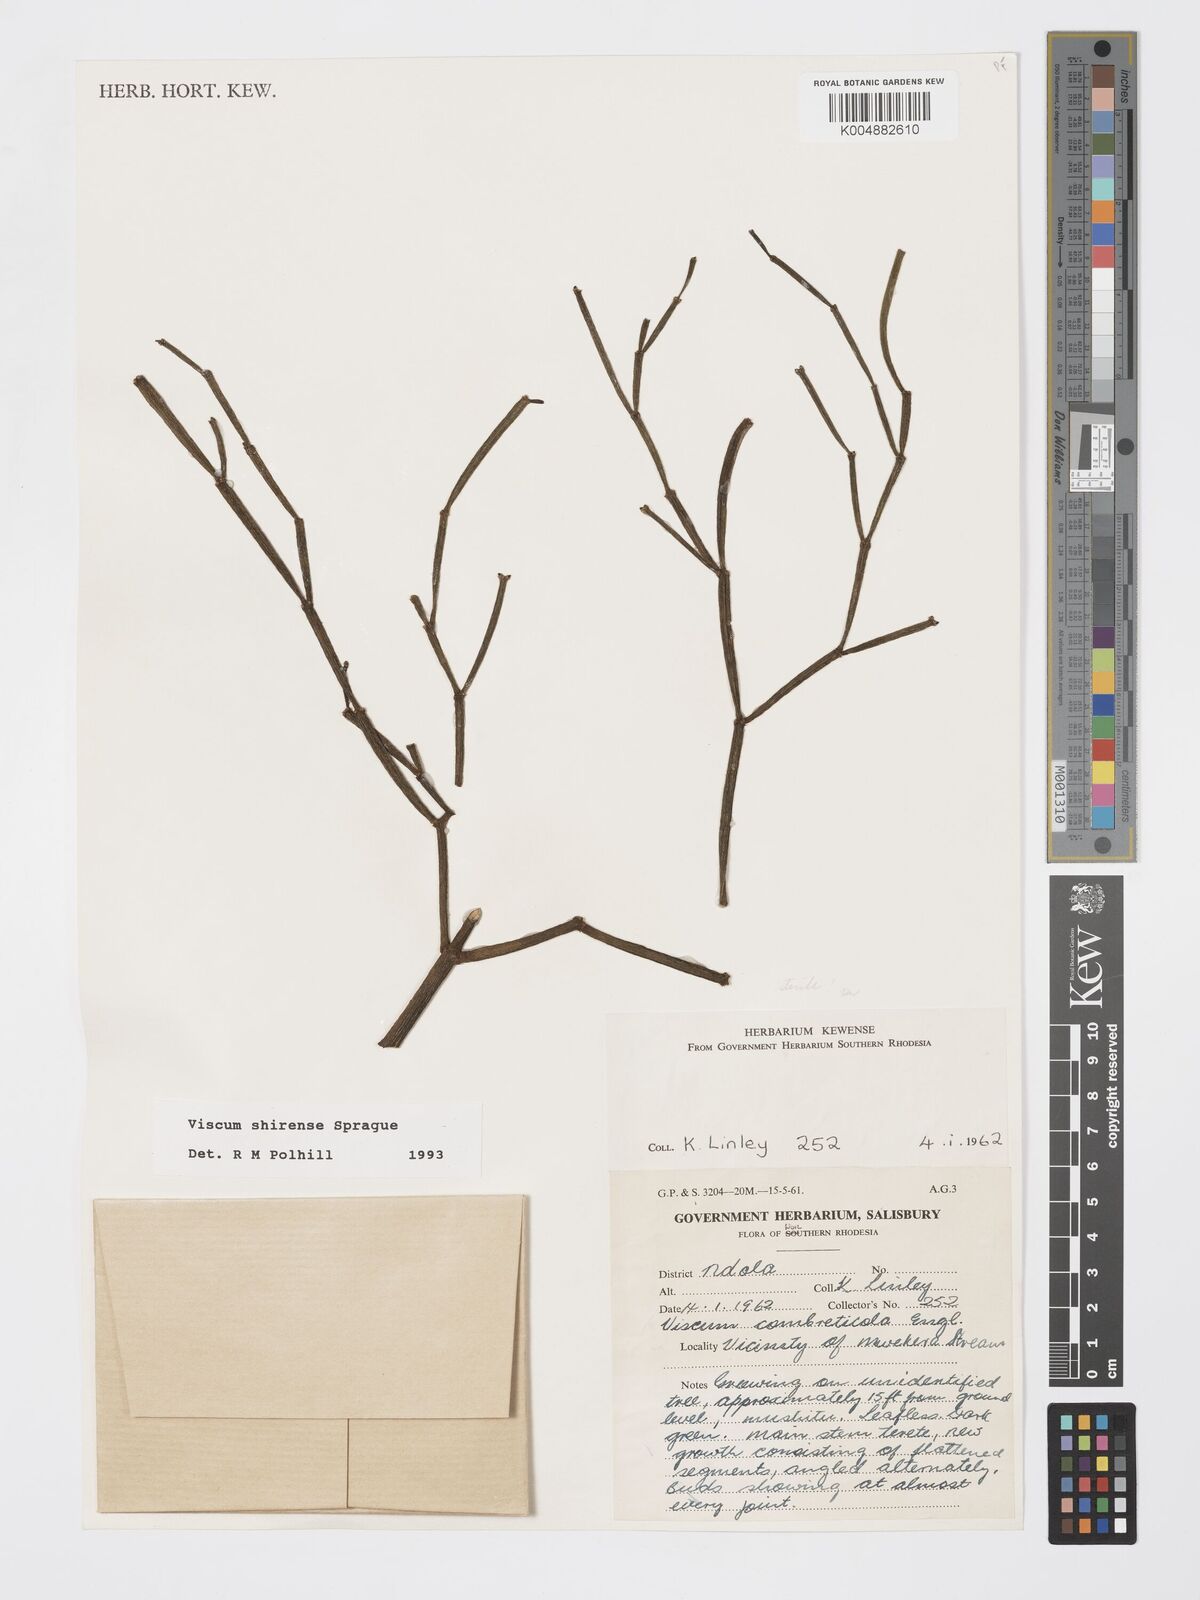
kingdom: Plantae
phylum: Tracheophyta
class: Magnoliopsida
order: Santalales
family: Viscaceae
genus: Viscum
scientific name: Viscum junodii
